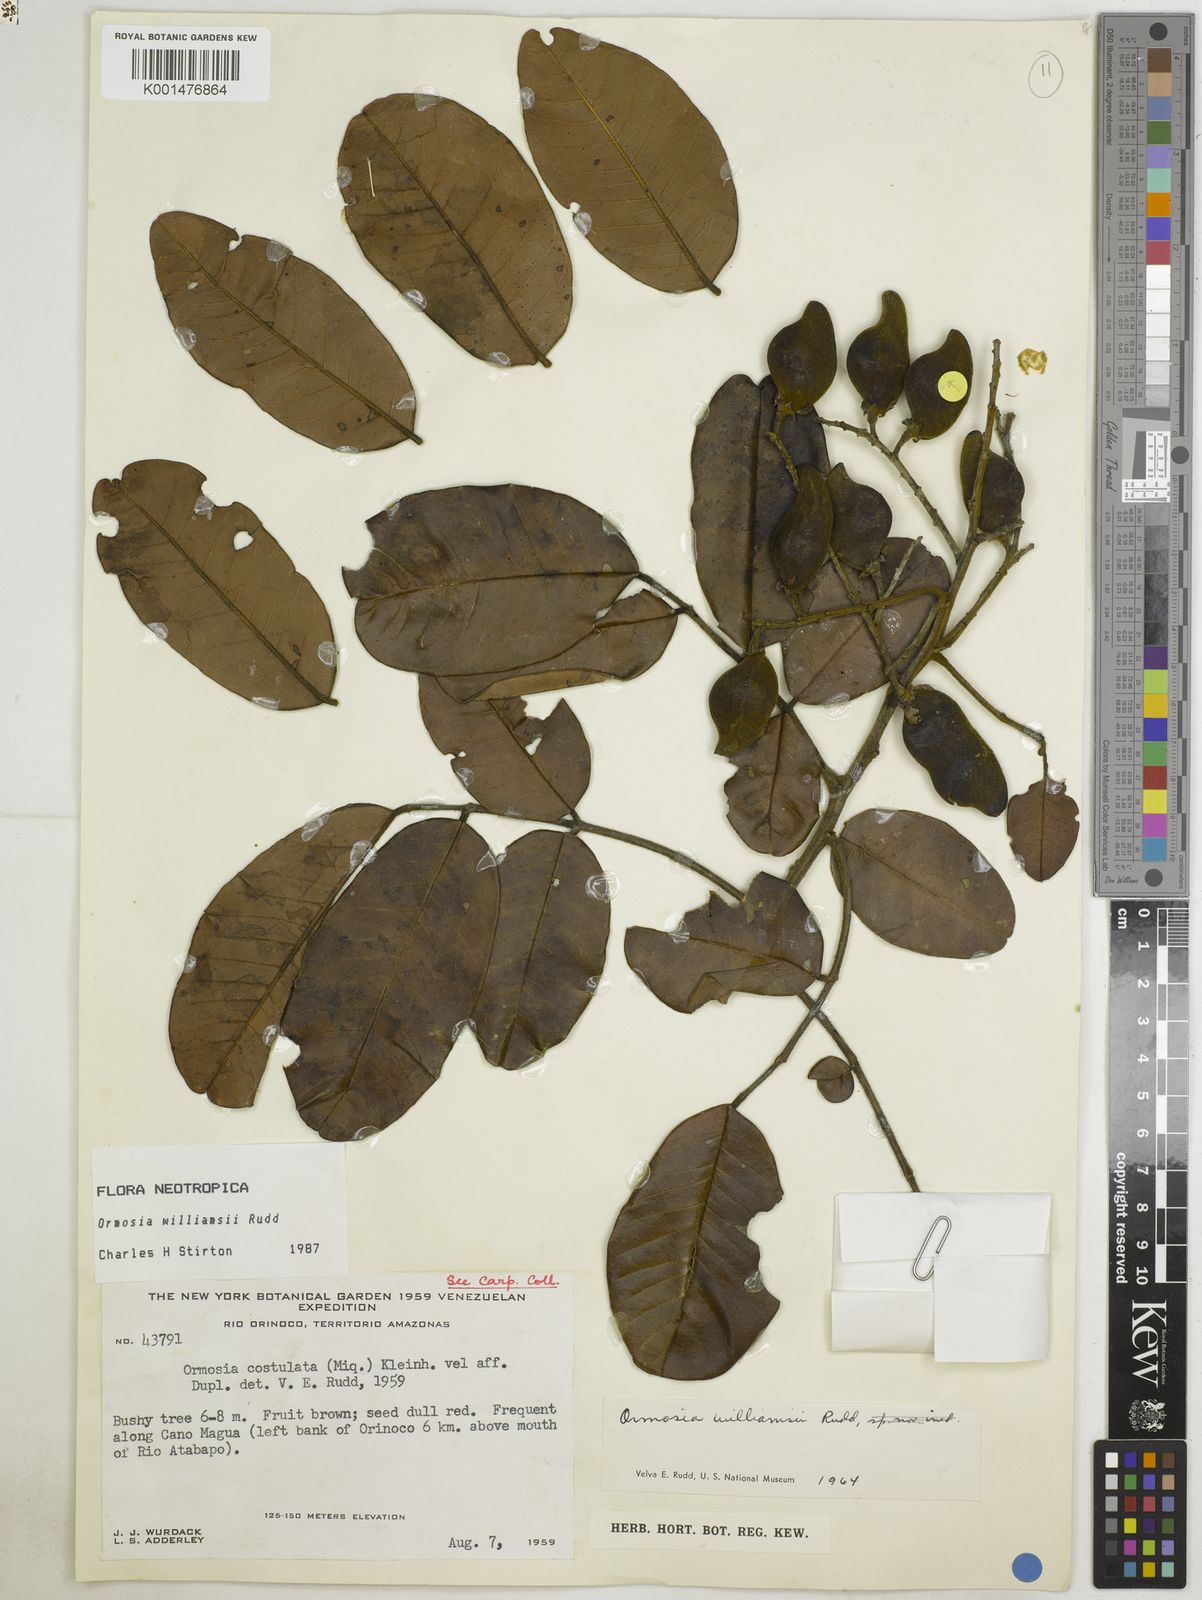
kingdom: Plantae
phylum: Tracheophyta
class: Magnoliopsida
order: Fabales
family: Fabaceae
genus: Ormosia
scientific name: Ormosia williamsii
